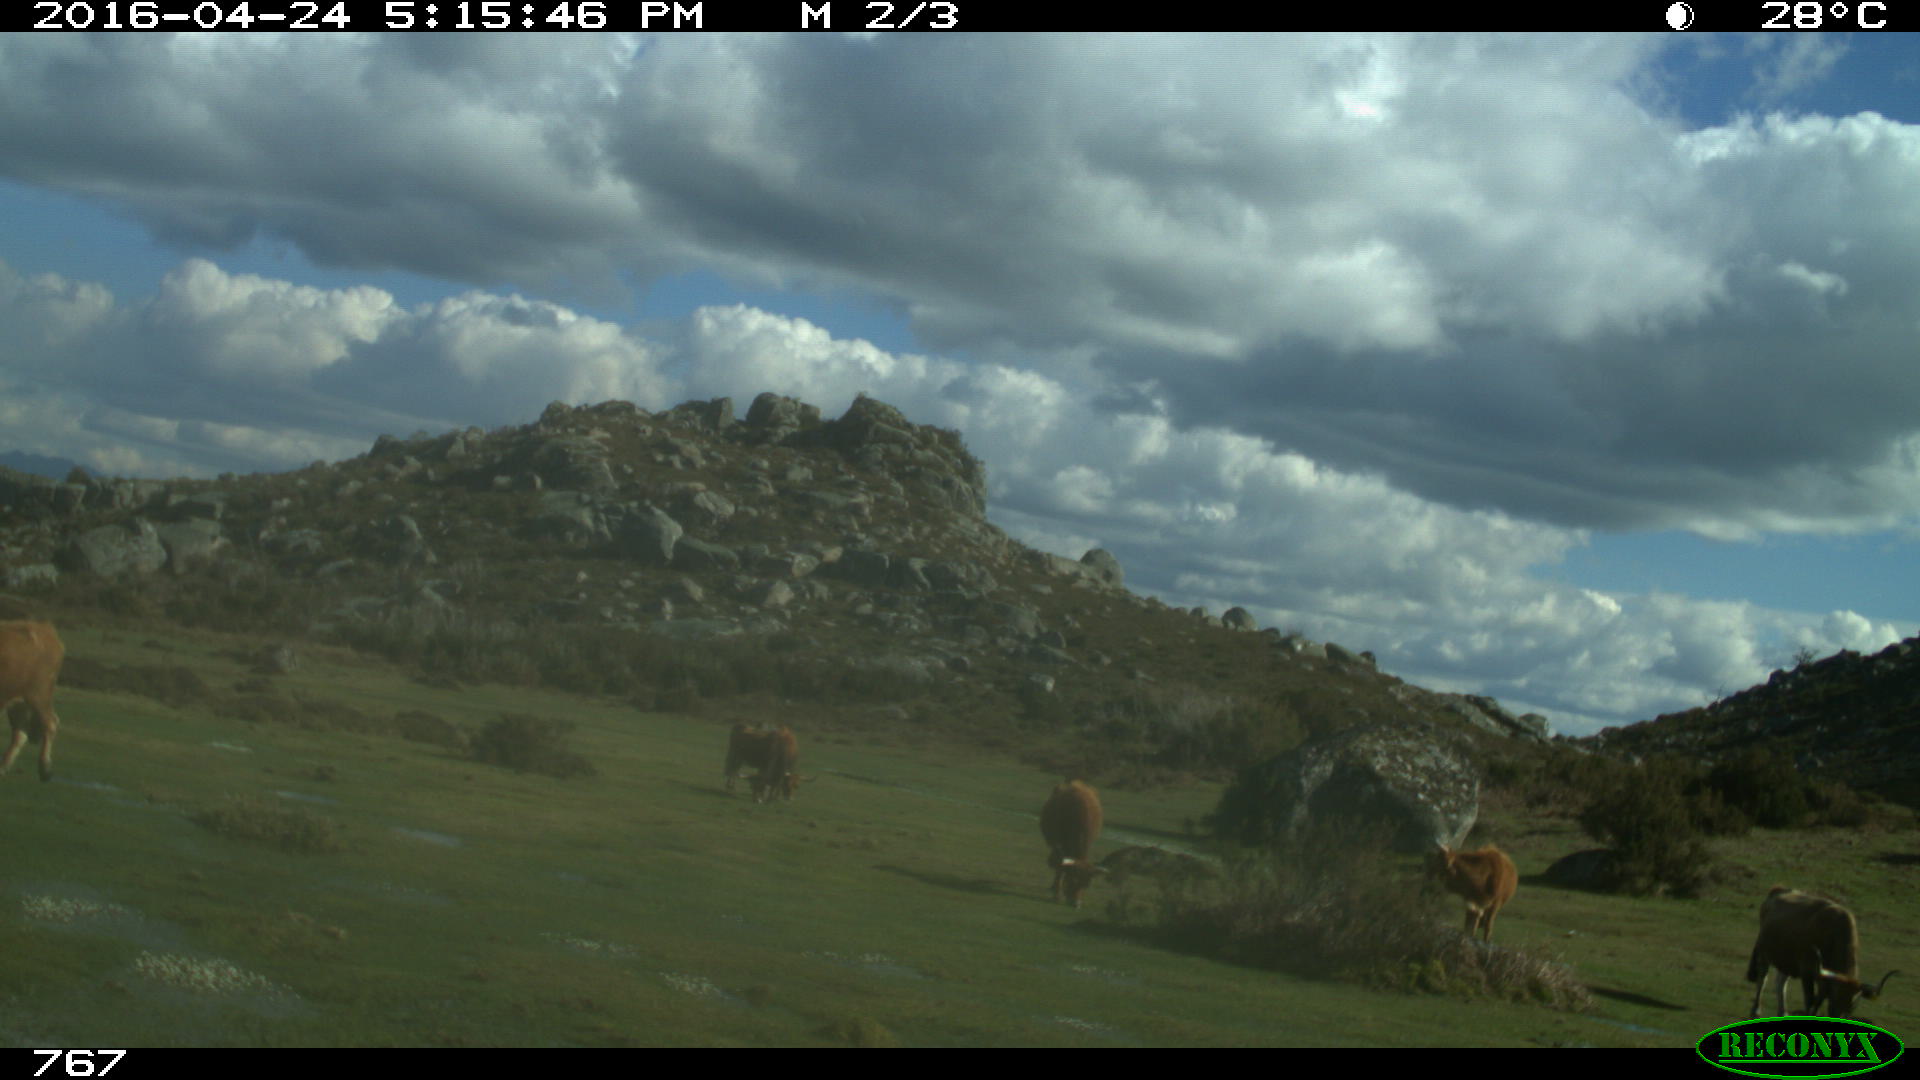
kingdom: Animalia
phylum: Chordata
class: Mammalia
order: Artiodactyla
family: Bovidae
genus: Bos
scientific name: Bos taurus
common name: Domesticated cattle
